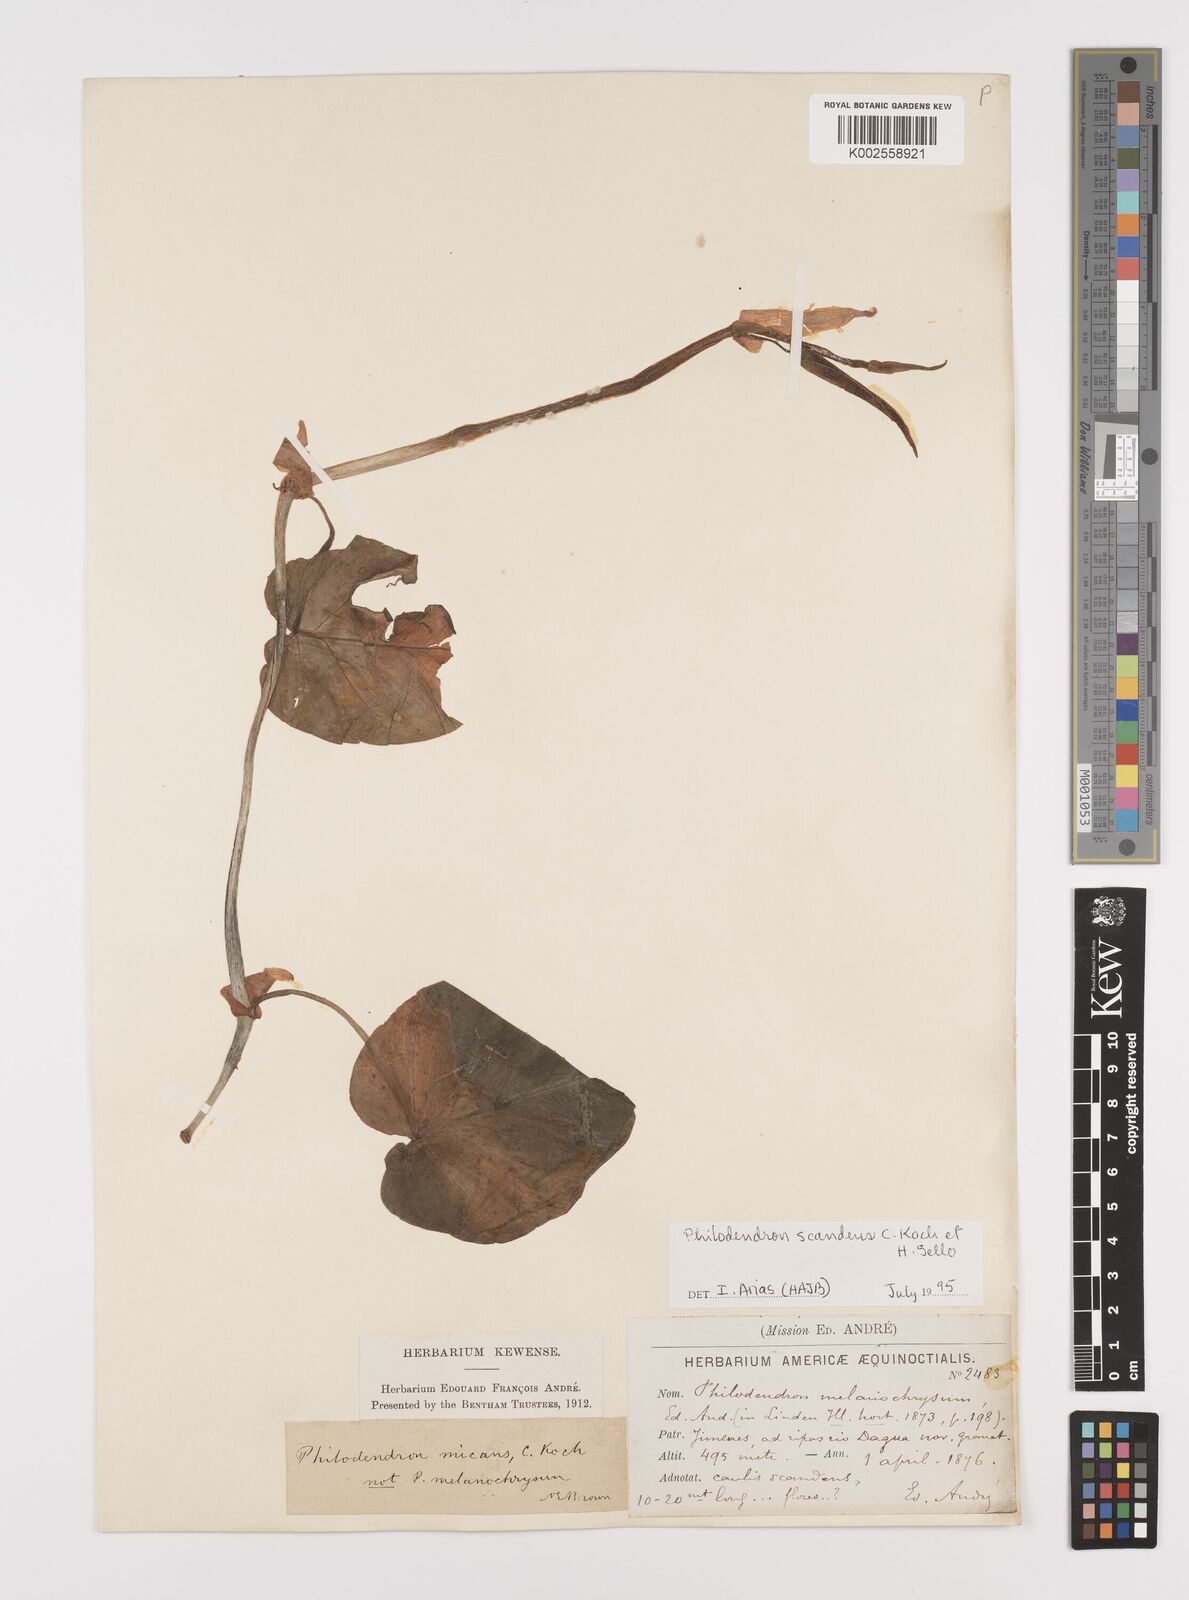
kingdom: Plantae
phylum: Tracheophyta
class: Liliopsida
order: Alismatales
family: Araceae
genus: Philodendron
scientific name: Philodendron hederaceum
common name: Vilevine
